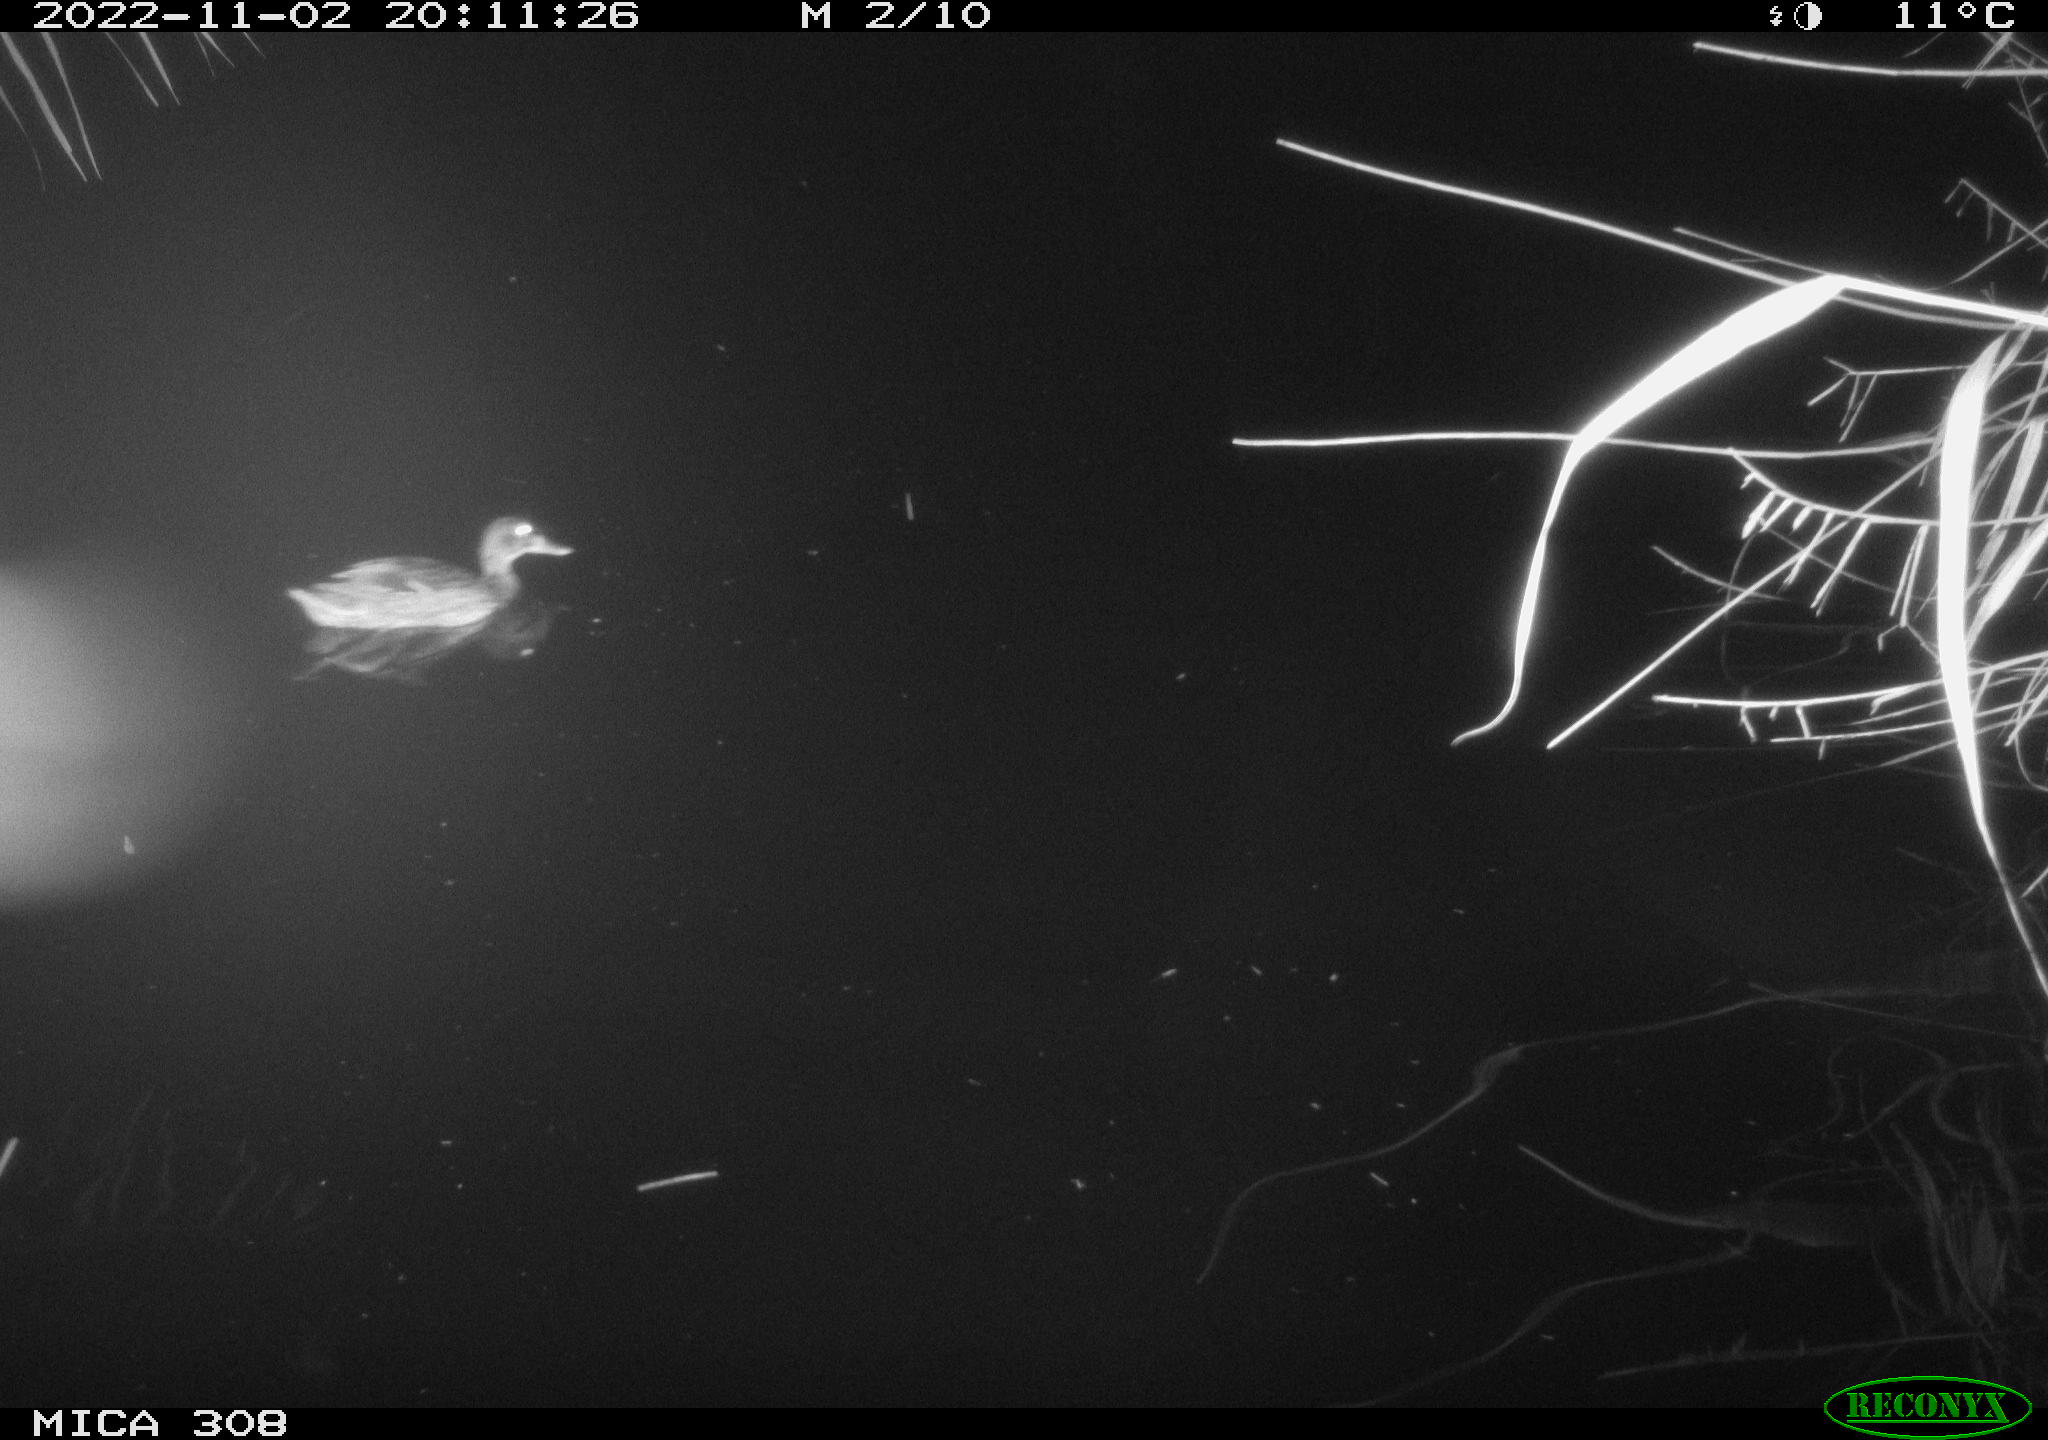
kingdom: Animalia
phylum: Chordata
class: Aves
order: Anseriformes
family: Anatidae
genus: Anas
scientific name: Anas
